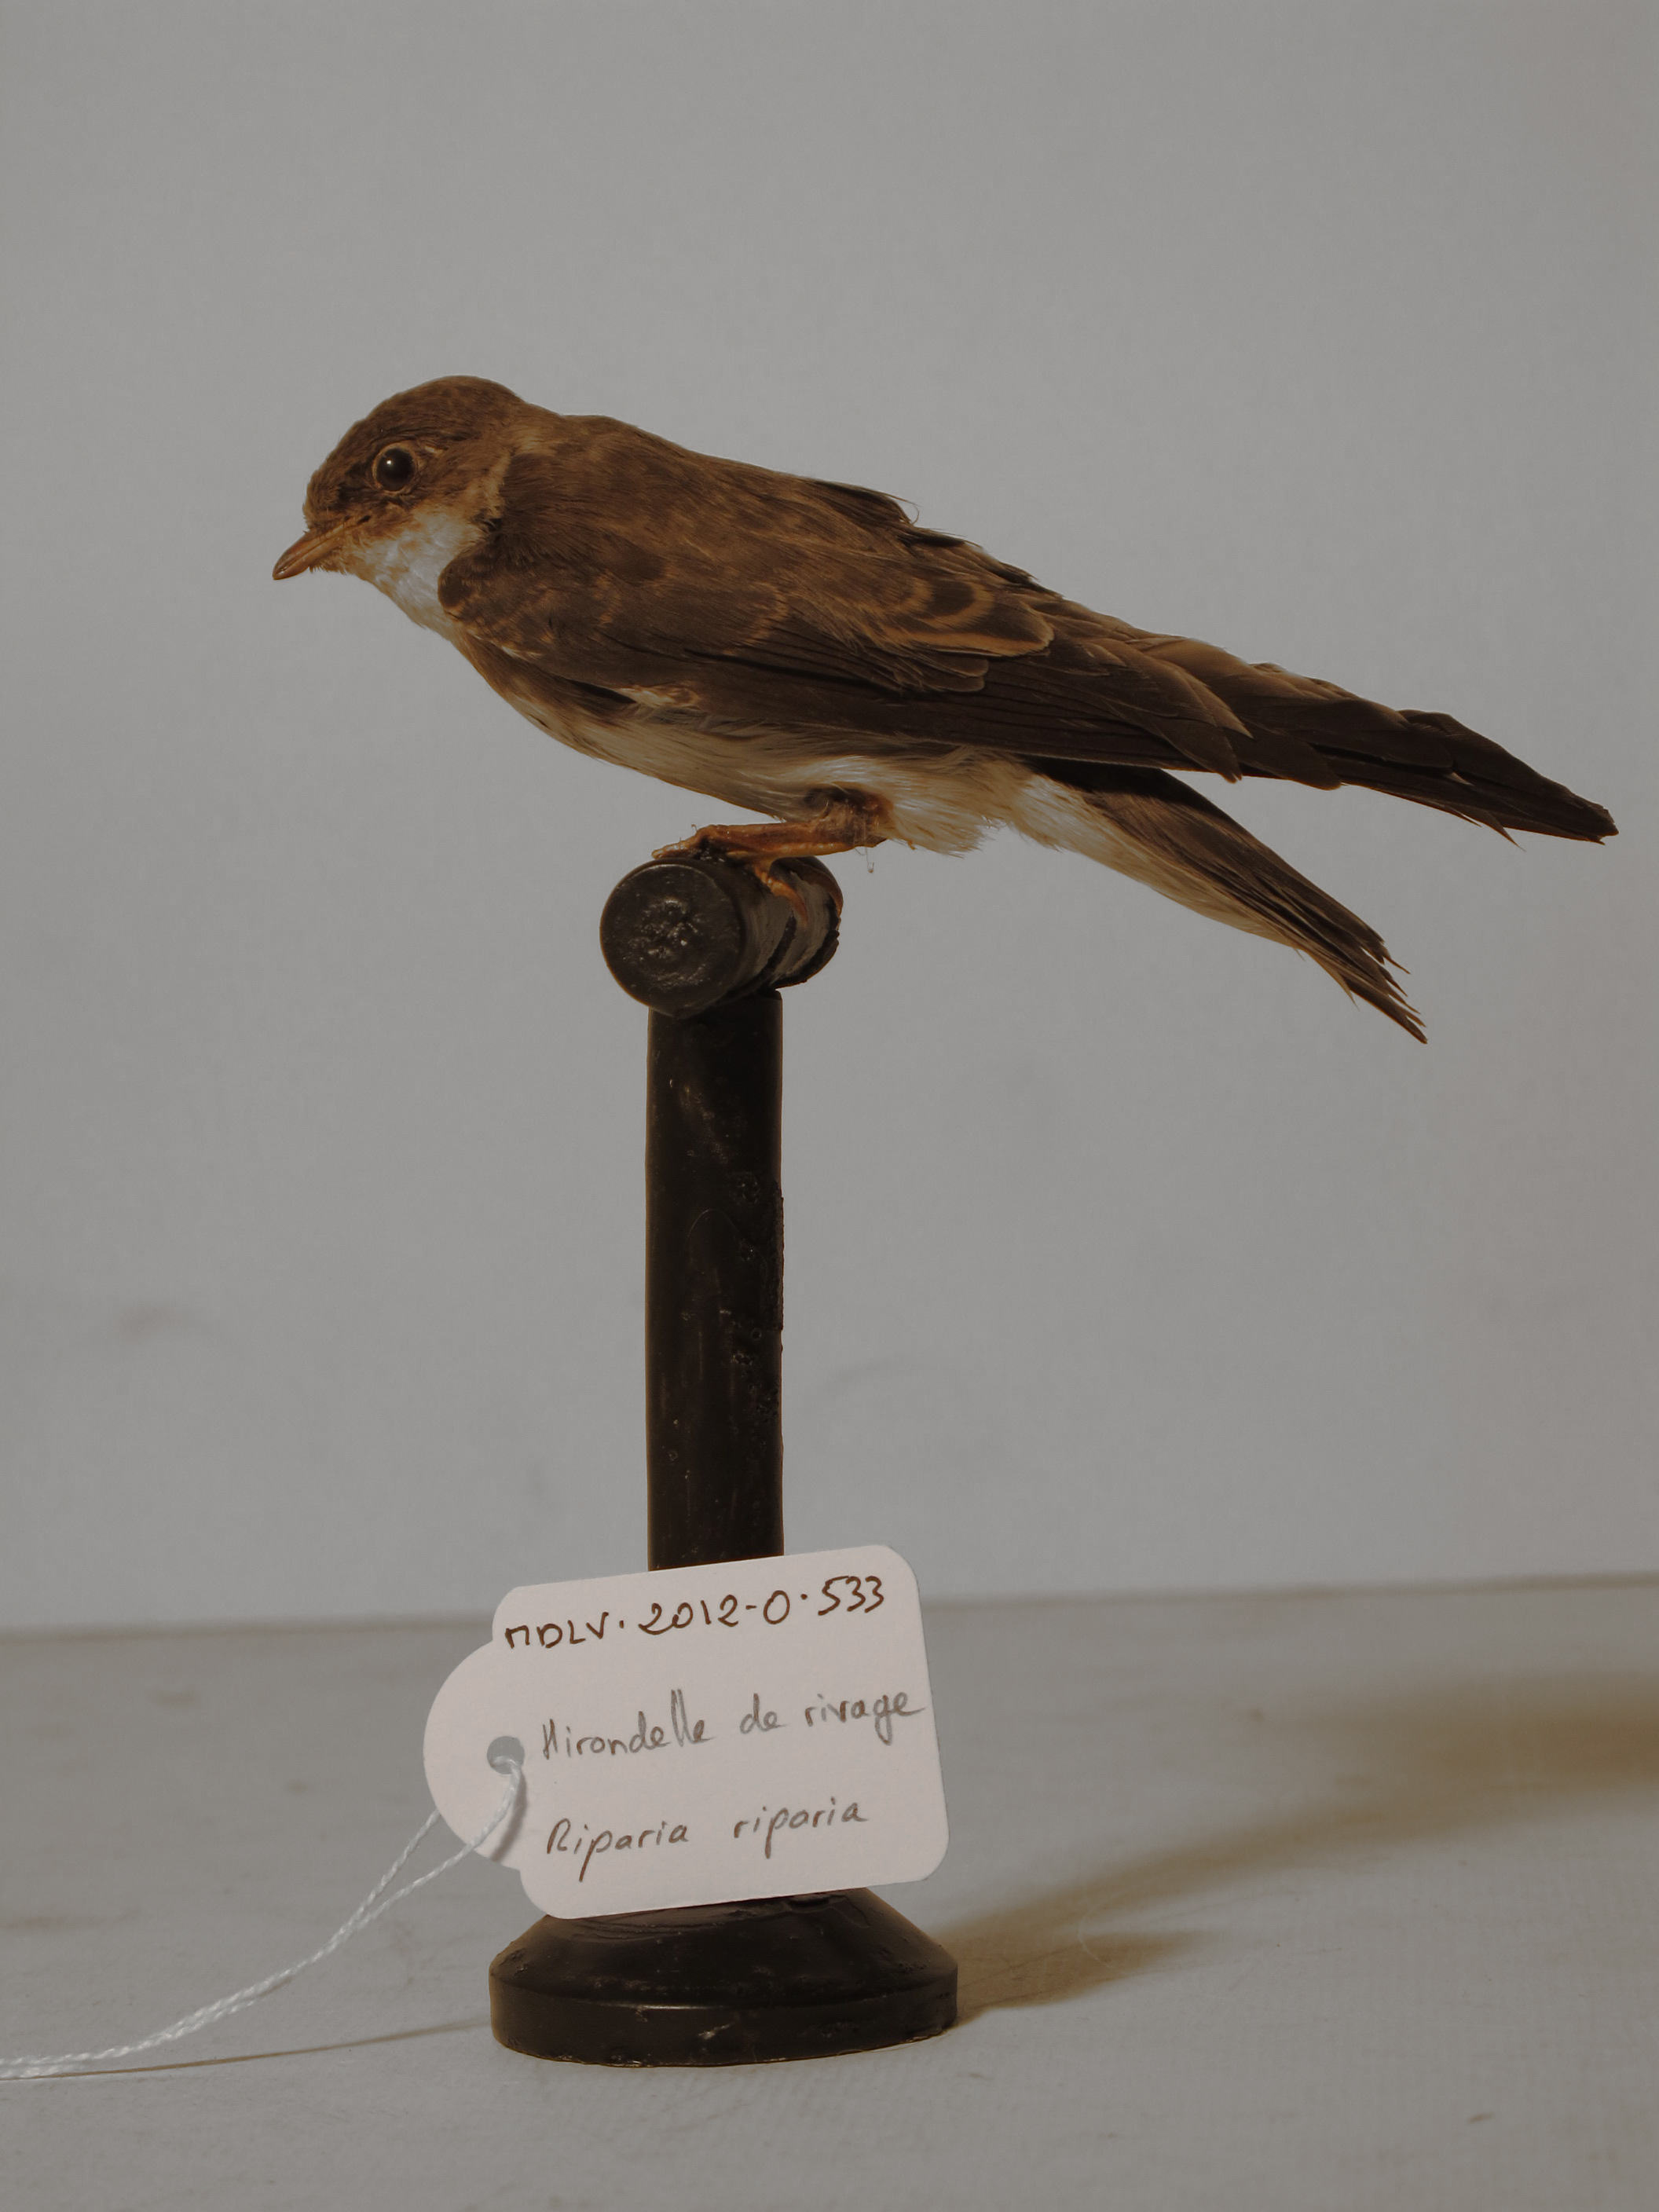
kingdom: Animalia
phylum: Chordata
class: Aves
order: Passeriformes
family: Hirundinidae
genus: Riparia
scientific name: Riparia riparia
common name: Collared Sand Martin
